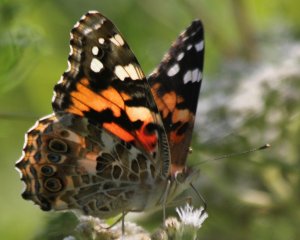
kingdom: Animalia
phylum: Arthropoda
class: Insecta
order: Lepidoptera
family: Nymphalidae
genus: Vanessa
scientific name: Vanessa cardui
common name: Painted Lady
